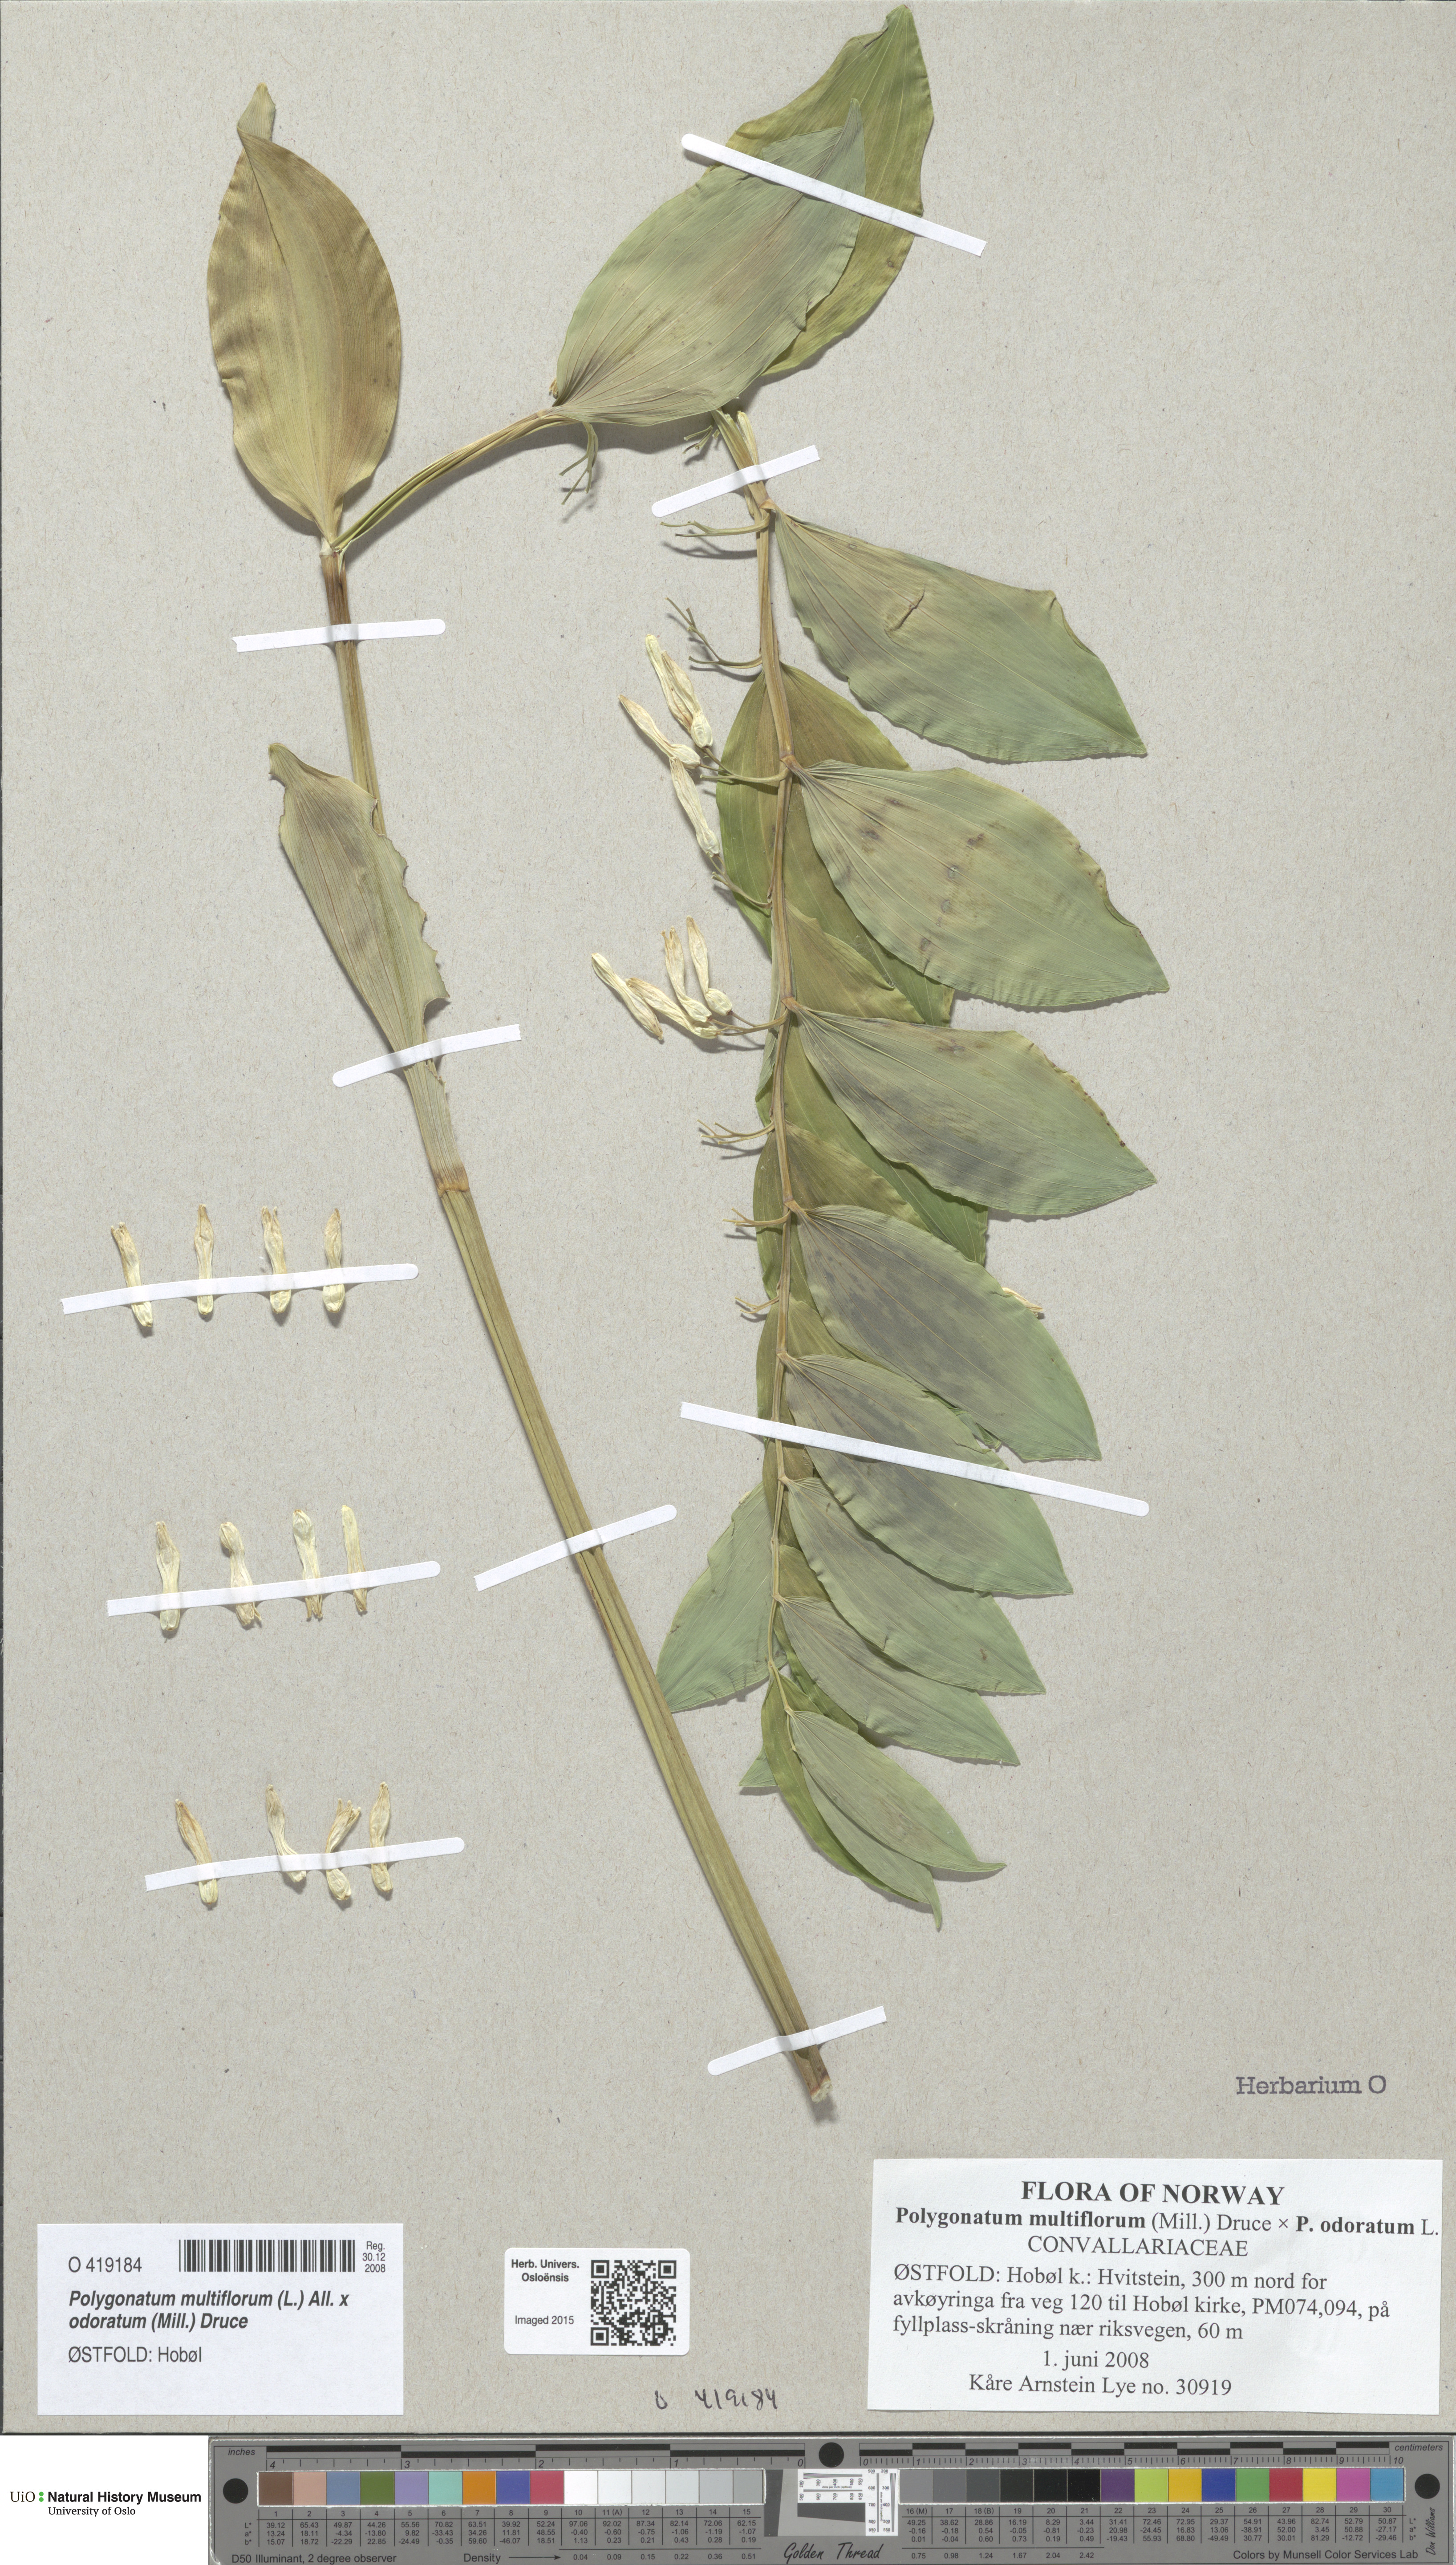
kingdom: Plantae
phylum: Tracheophyta
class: Liliopsida
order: Asparagales
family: Asparagaceae
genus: Polygonatum
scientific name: Polygonatum
